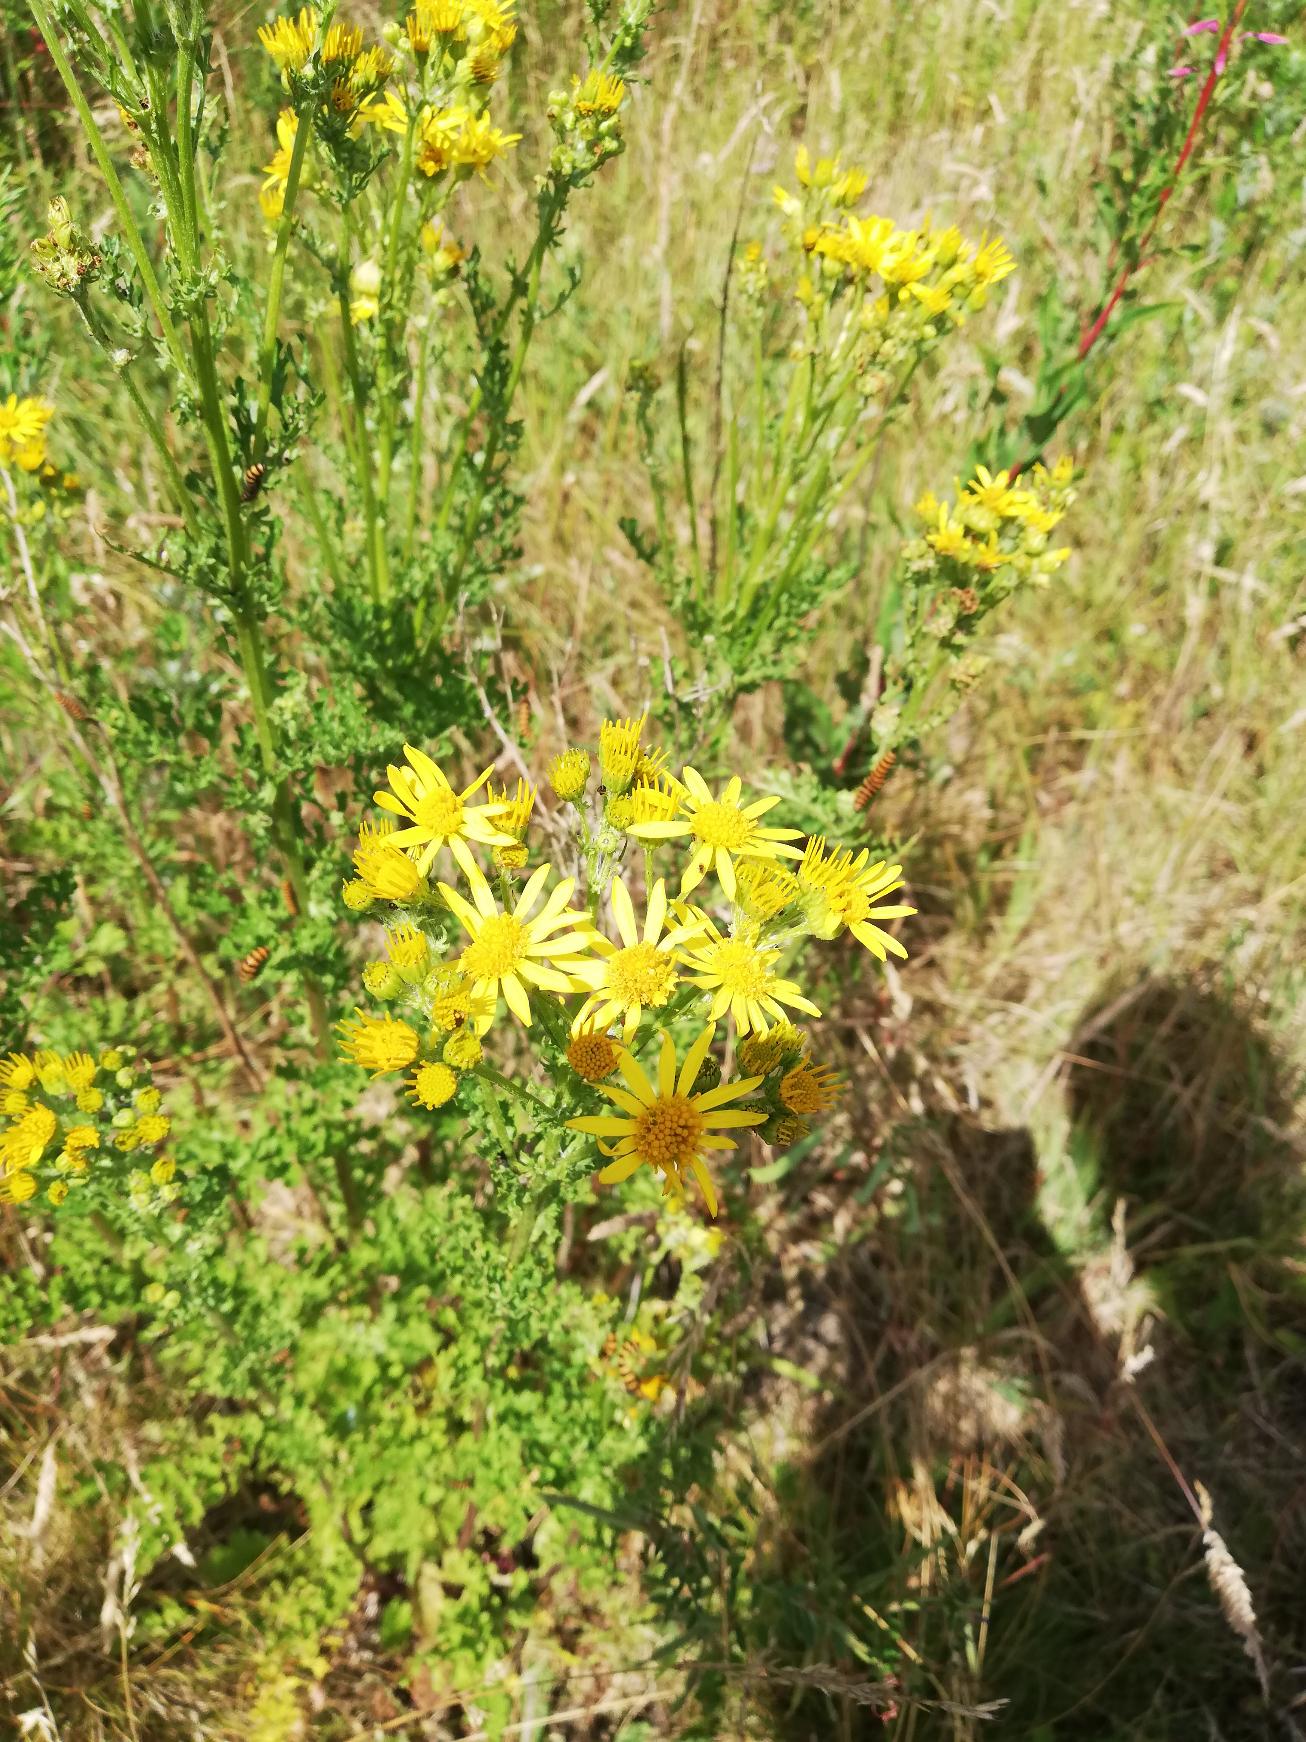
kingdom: Plantae
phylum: Tracheophyta
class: Magnoliopsida
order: Asterales
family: Asteraceae
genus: Jacobaea
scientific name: Jacobaea vulgaris
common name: Eng-brandbæger
